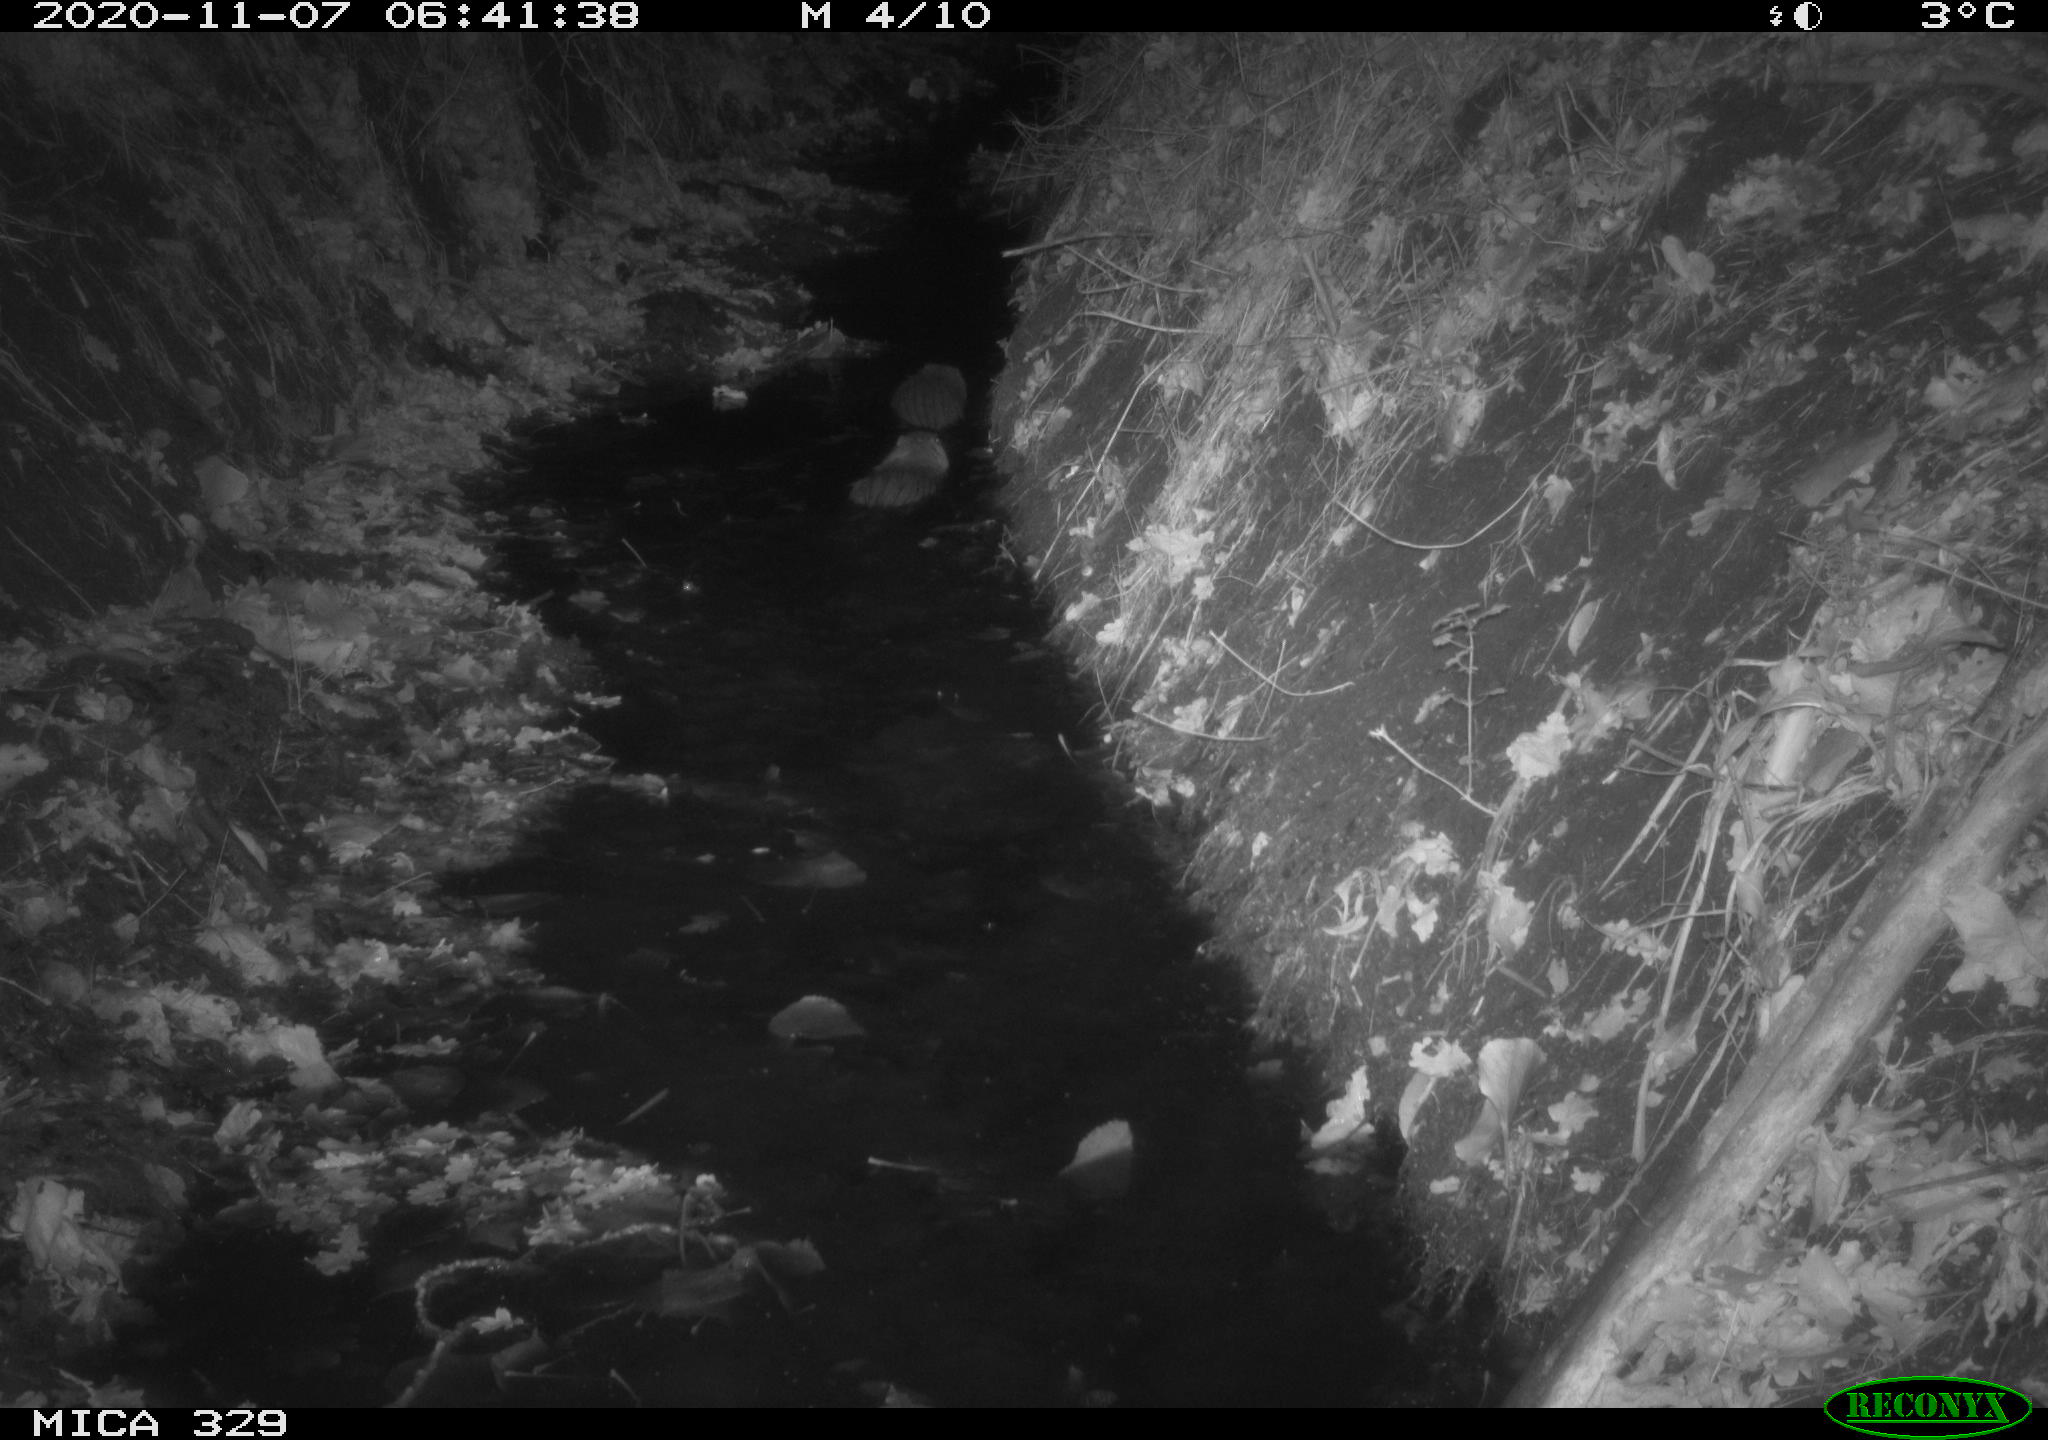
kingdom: Animalia
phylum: Chordata
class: Mammalia
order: Rodentia
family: Myocastoridae
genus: Myocastor
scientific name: Myocastor coypus
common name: Coypu
